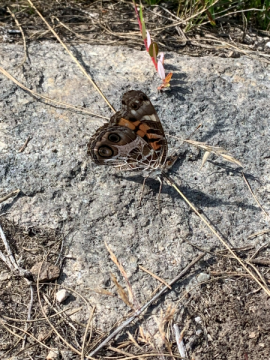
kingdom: Animalia
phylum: Arthropoda
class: Insecta
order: Lepidoptera
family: Nymphalidae
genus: Vanessa
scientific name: Vanessa virginiensis
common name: American Lady
